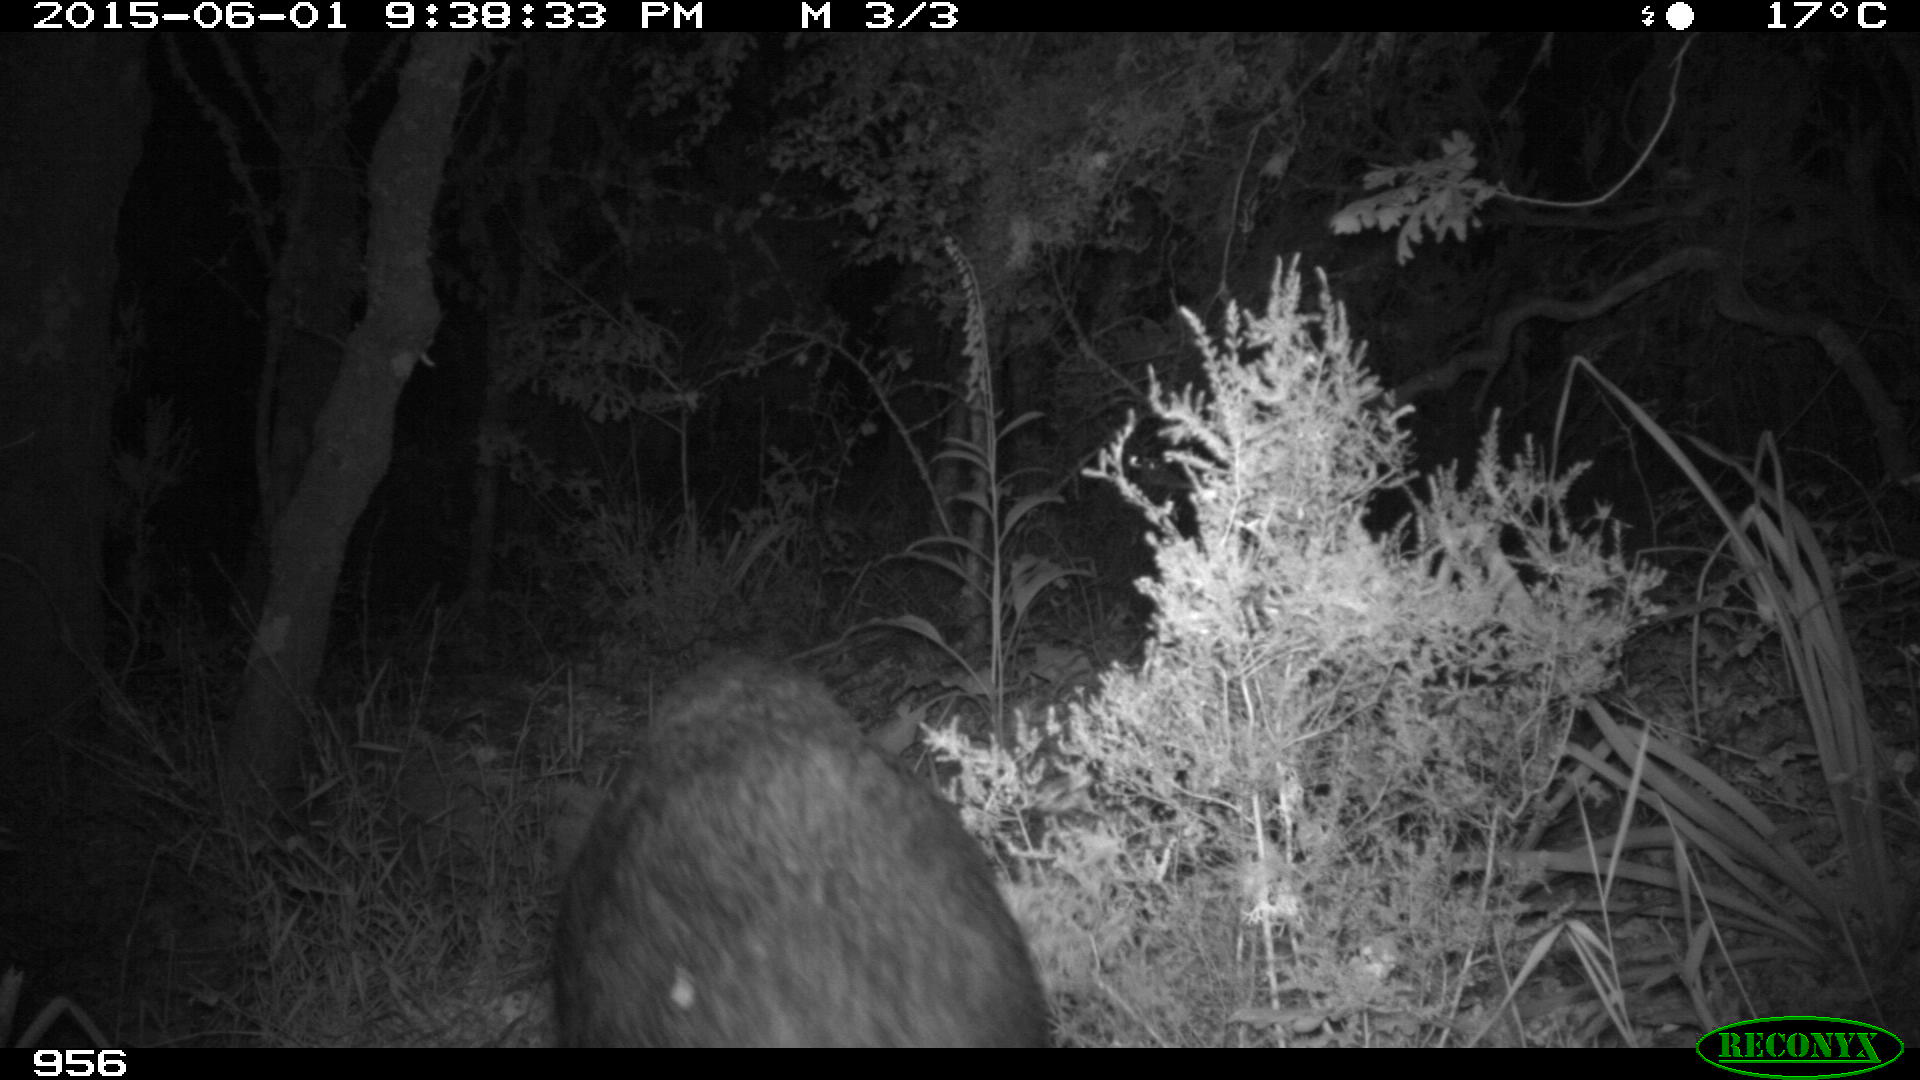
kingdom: Animalia
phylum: Chordata
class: Mammalia
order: Artiodactyla
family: Suidae
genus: Sus
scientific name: Sus scrofa
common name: Wild boar
